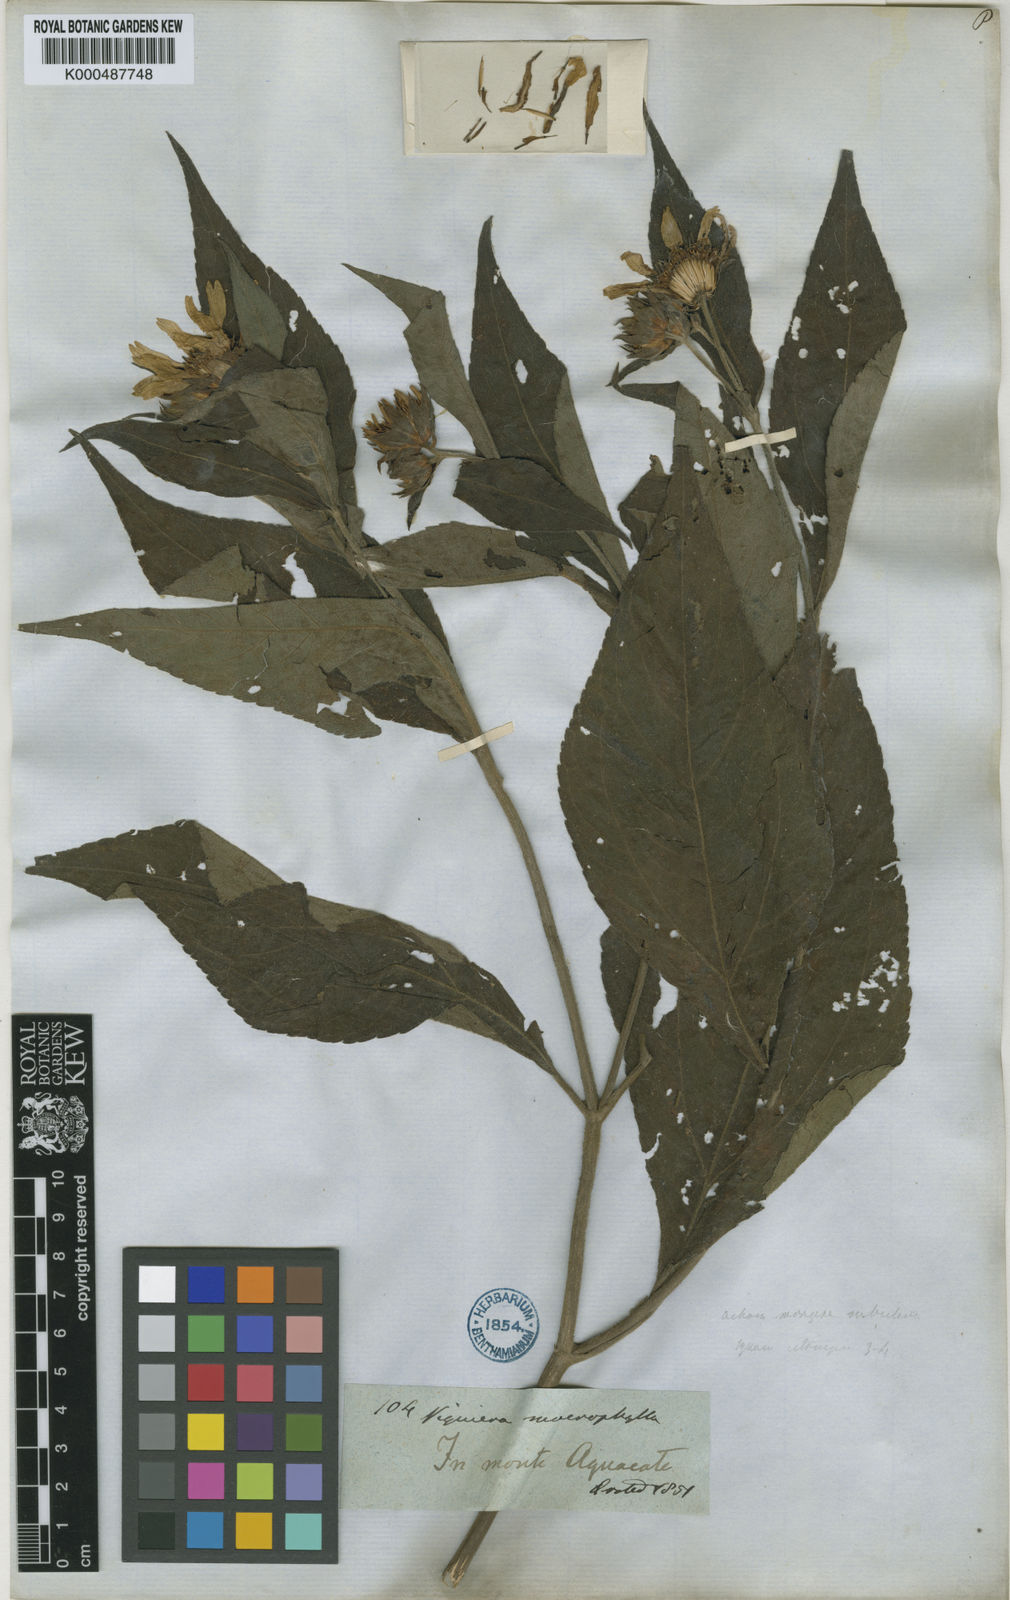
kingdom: Plantae
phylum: Tracheophyta
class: Magnoliopsida
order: Asterales
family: Asteraceae
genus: Oyedaea
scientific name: Oyedaea verbesinoides
